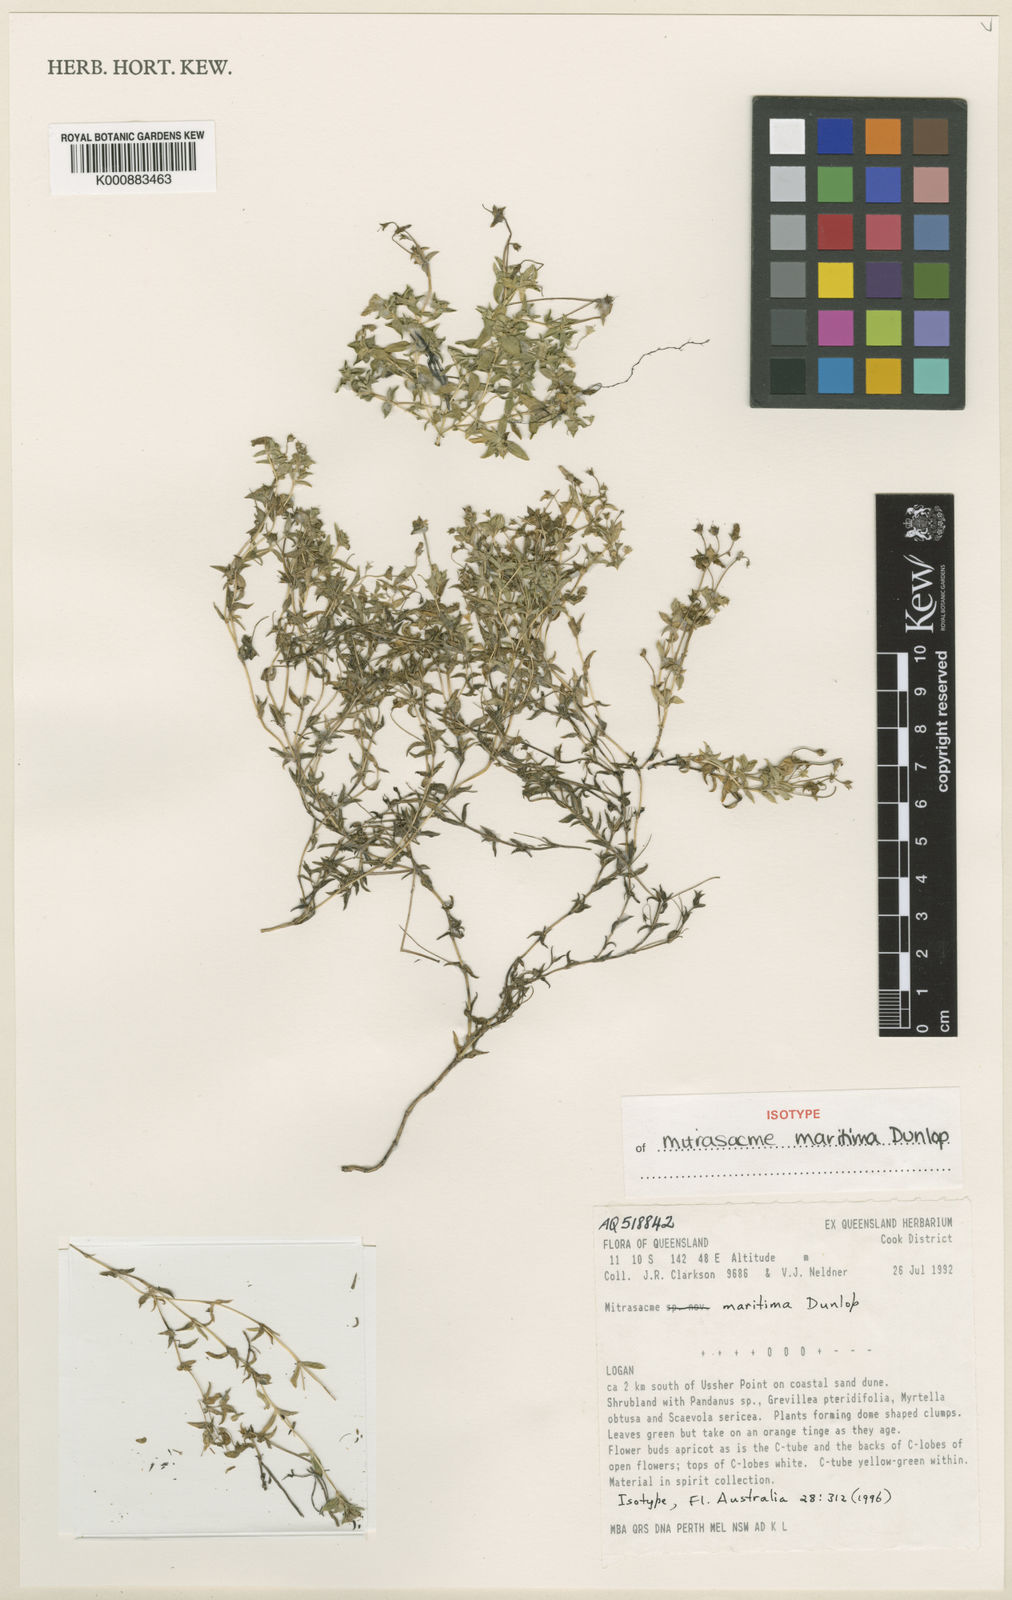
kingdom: Plantae
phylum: Tracheophyta
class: Magnoliopsida
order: Gentianales
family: Loganiaceae
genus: Mitrasacme
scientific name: Mitrasacme maritima
